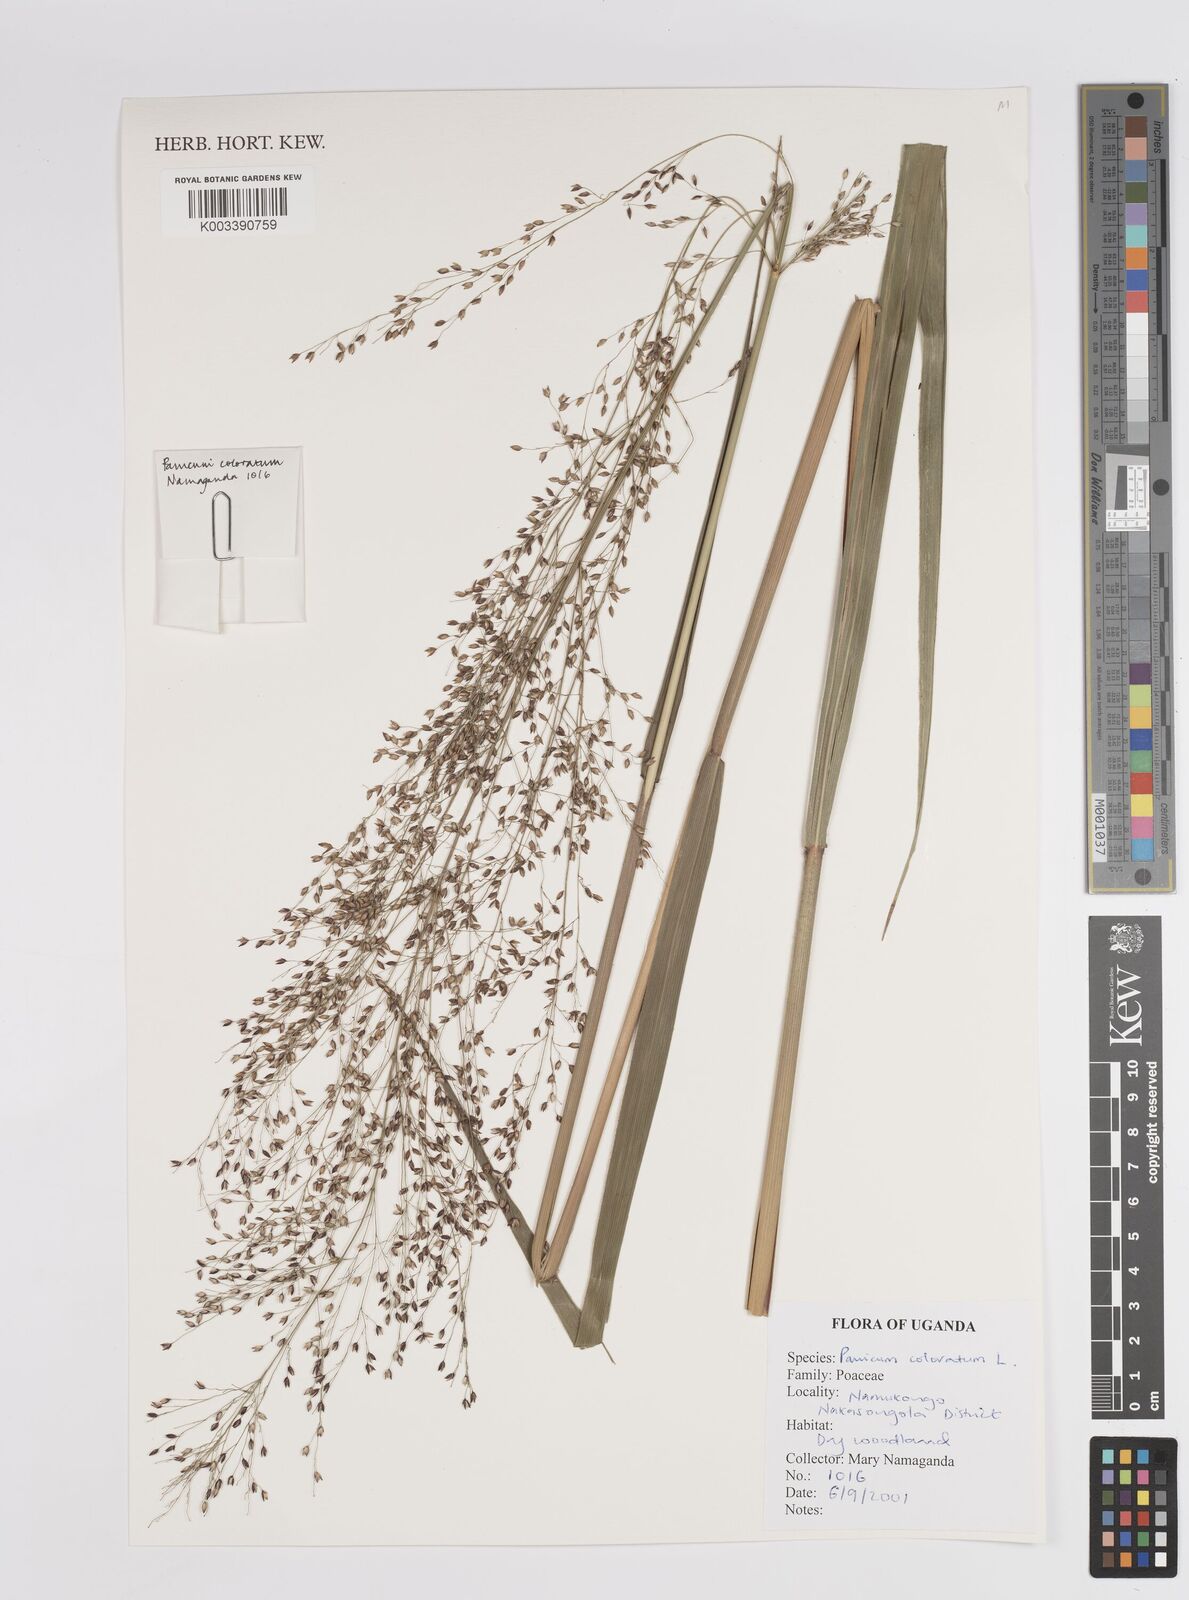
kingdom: Plantae
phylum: Tracheophyta
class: Liliopsida
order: Poales
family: Poaceae
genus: Panicum
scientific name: Panicum coloratum
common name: Kleingrass
